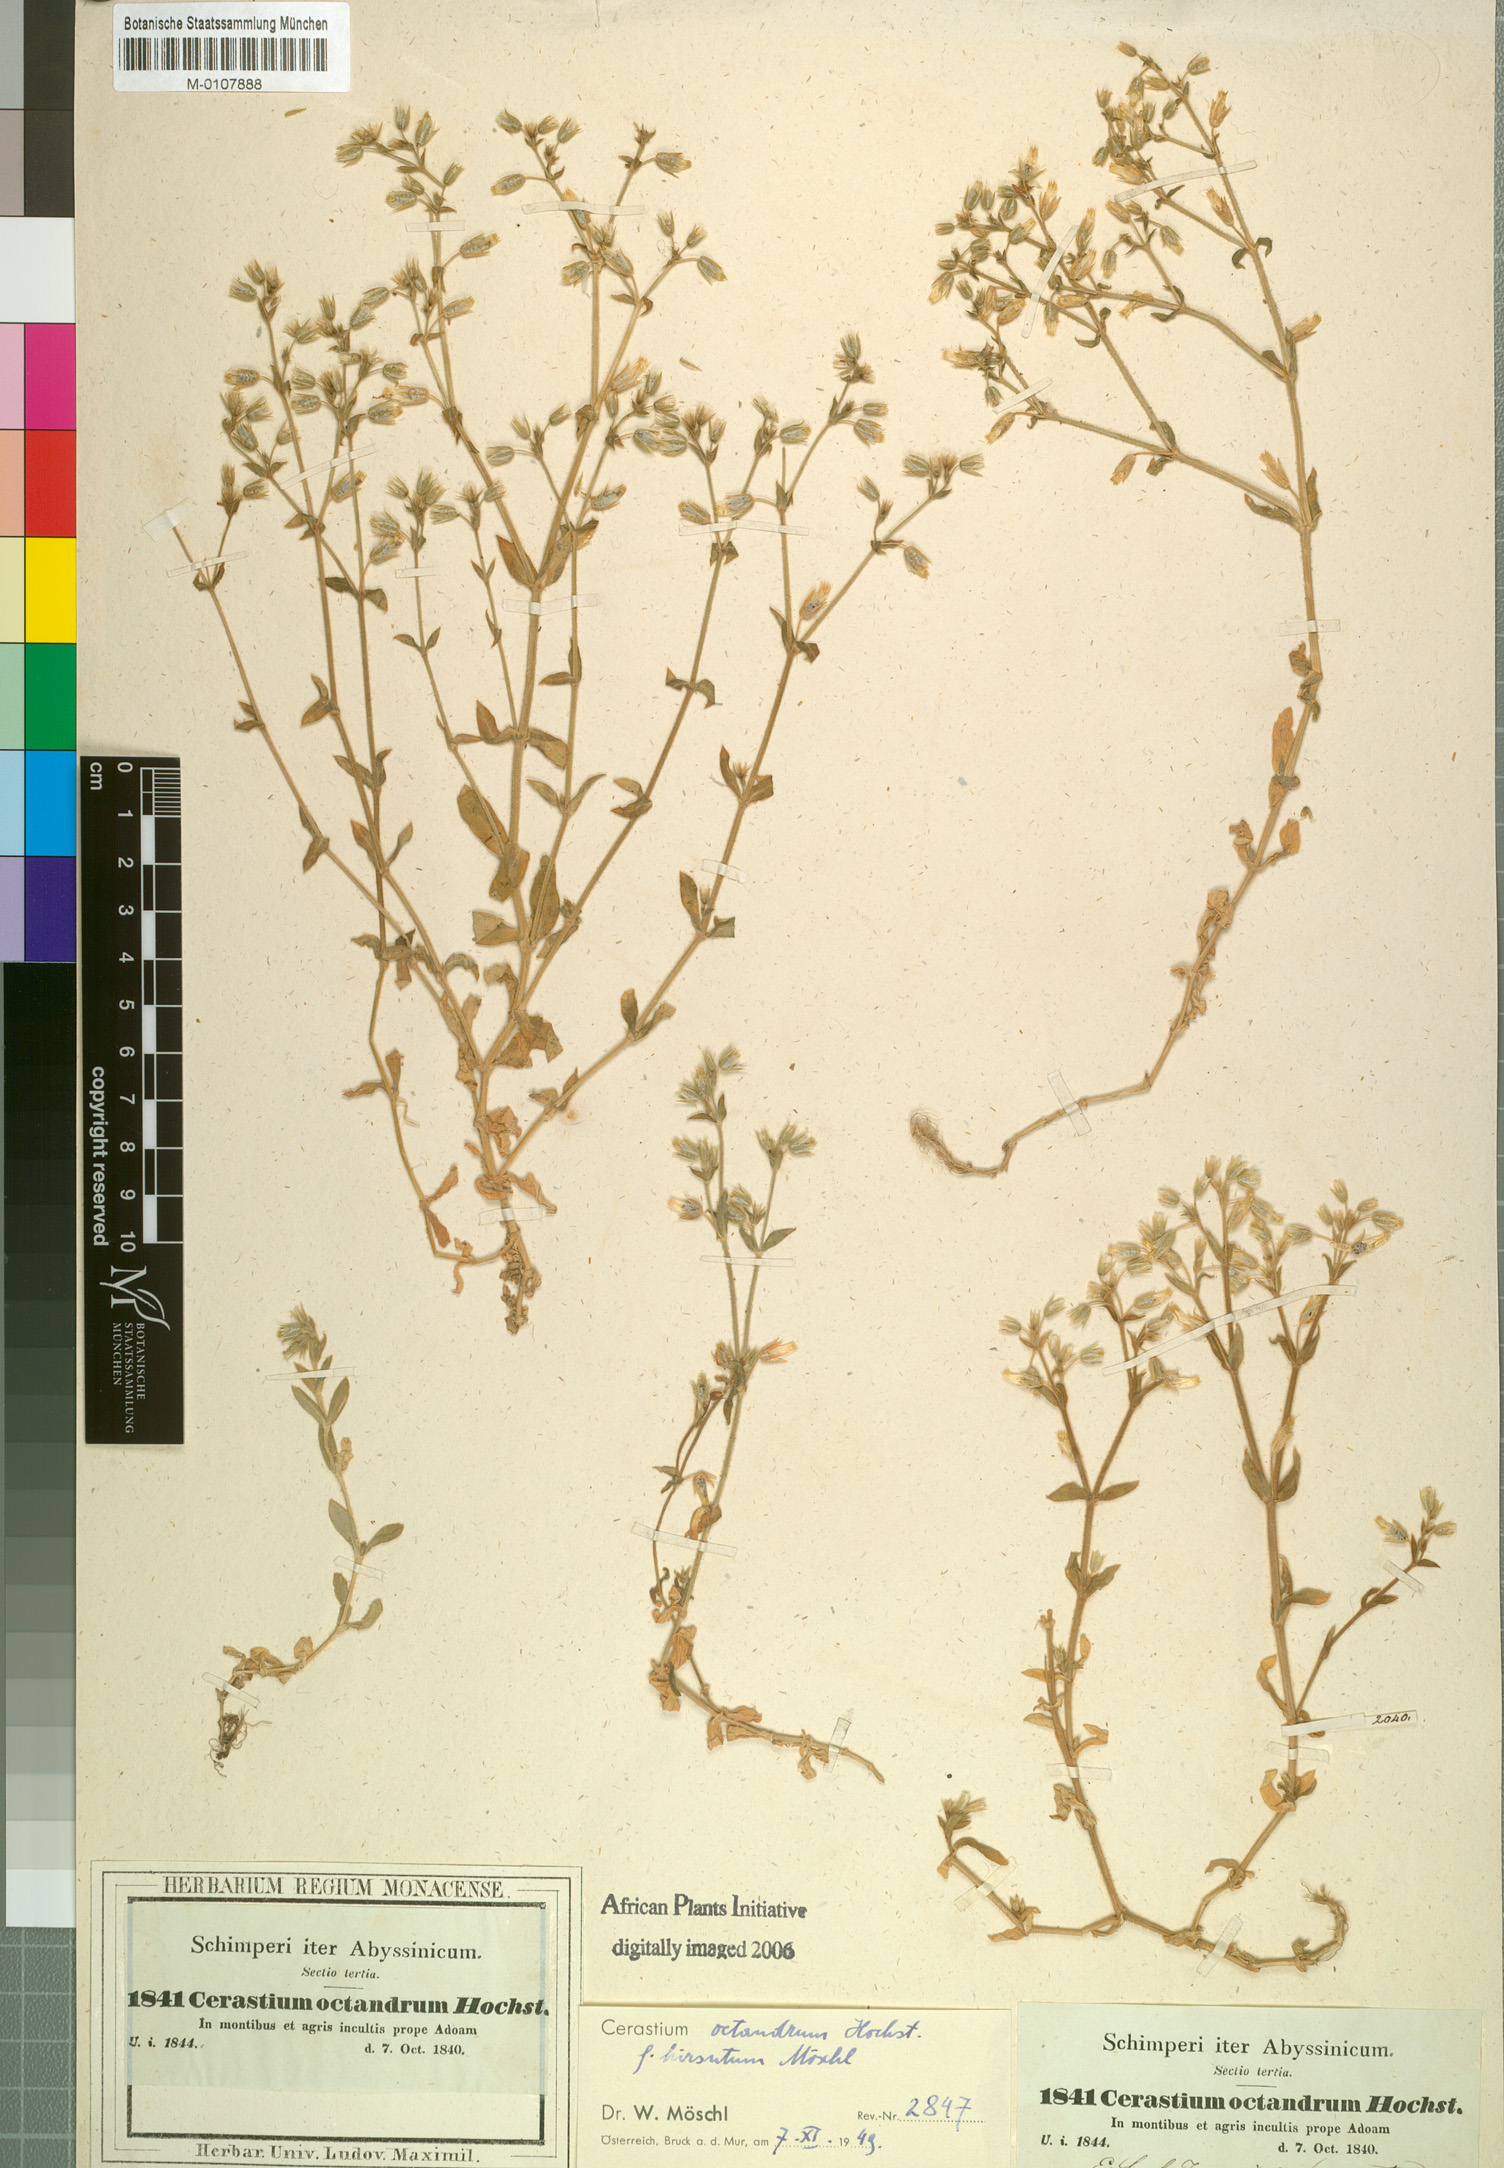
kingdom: Plantae
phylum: Tracheophyta
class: Magnoliopsida
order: Caryophyllales
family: Caryophyllaceae
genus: Cerastium
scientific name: Cerastium octandrum
